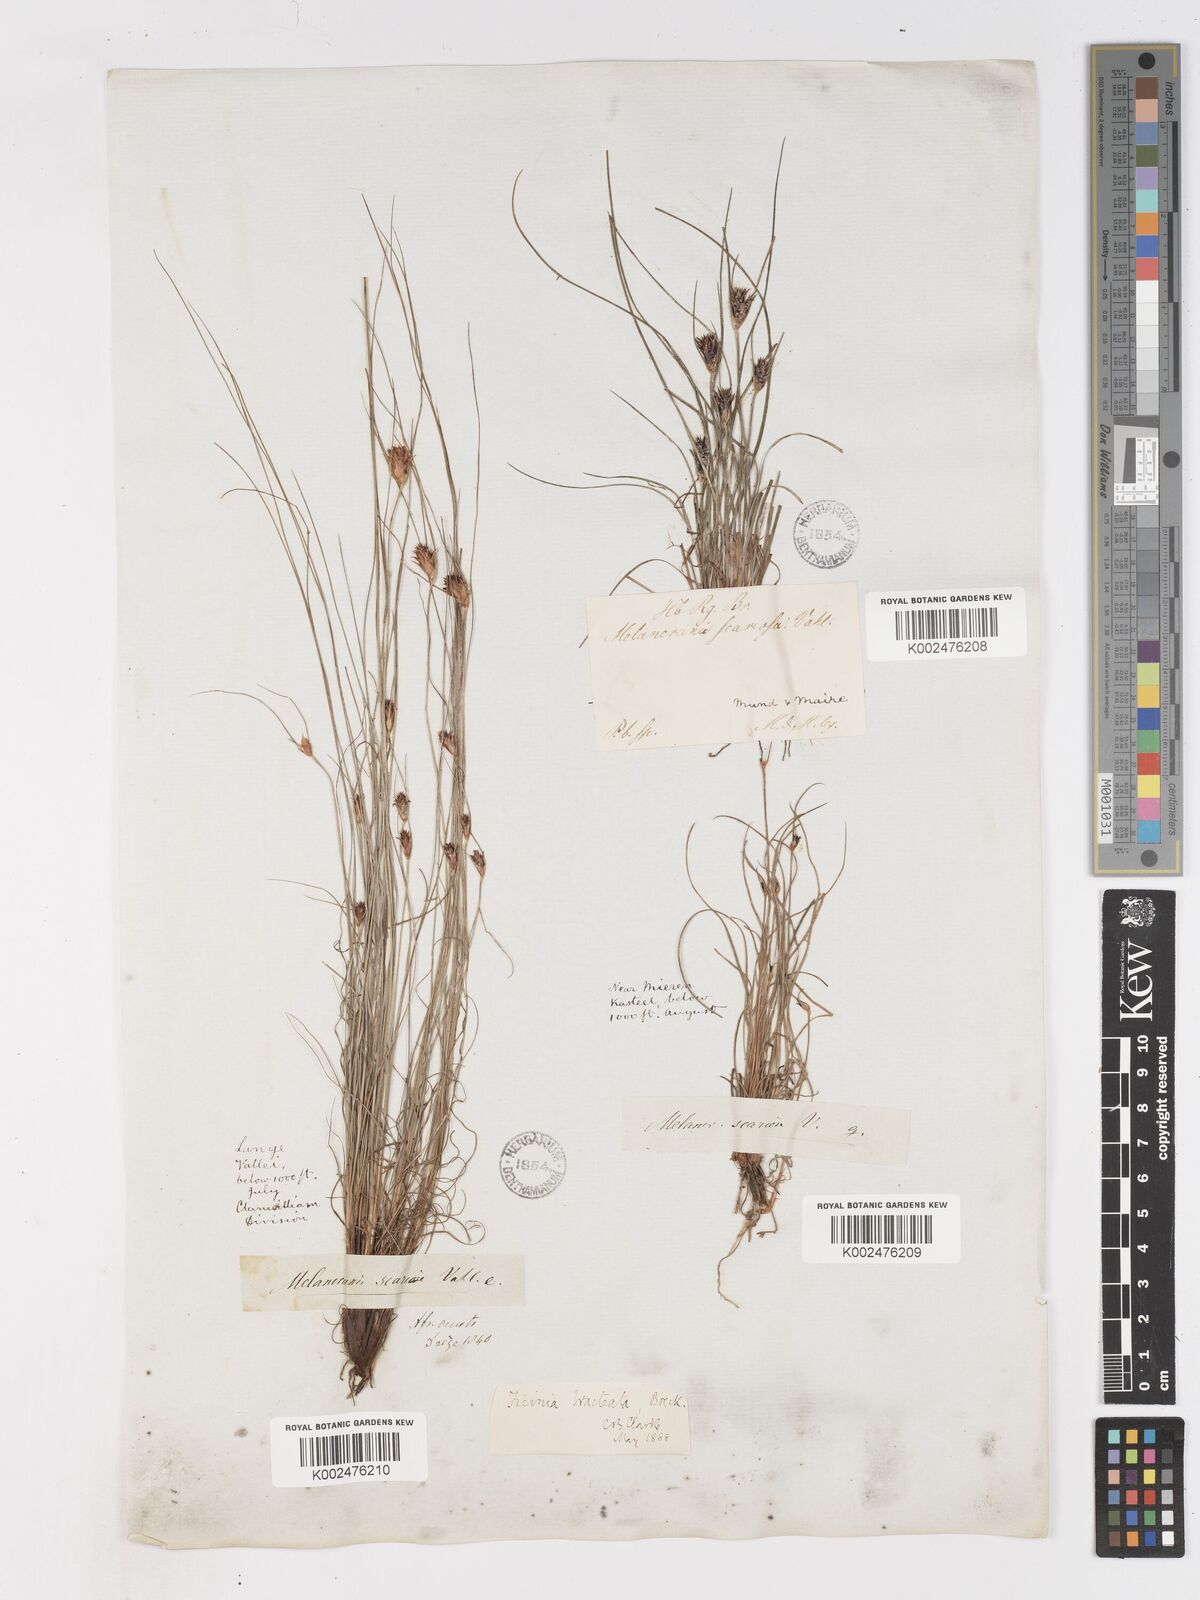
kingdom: Plantae
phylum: Tracheophyta
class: Liliopsida
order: Poales
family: Cyperaceae
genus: Ficinia
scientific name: Ficinia nigrescens
